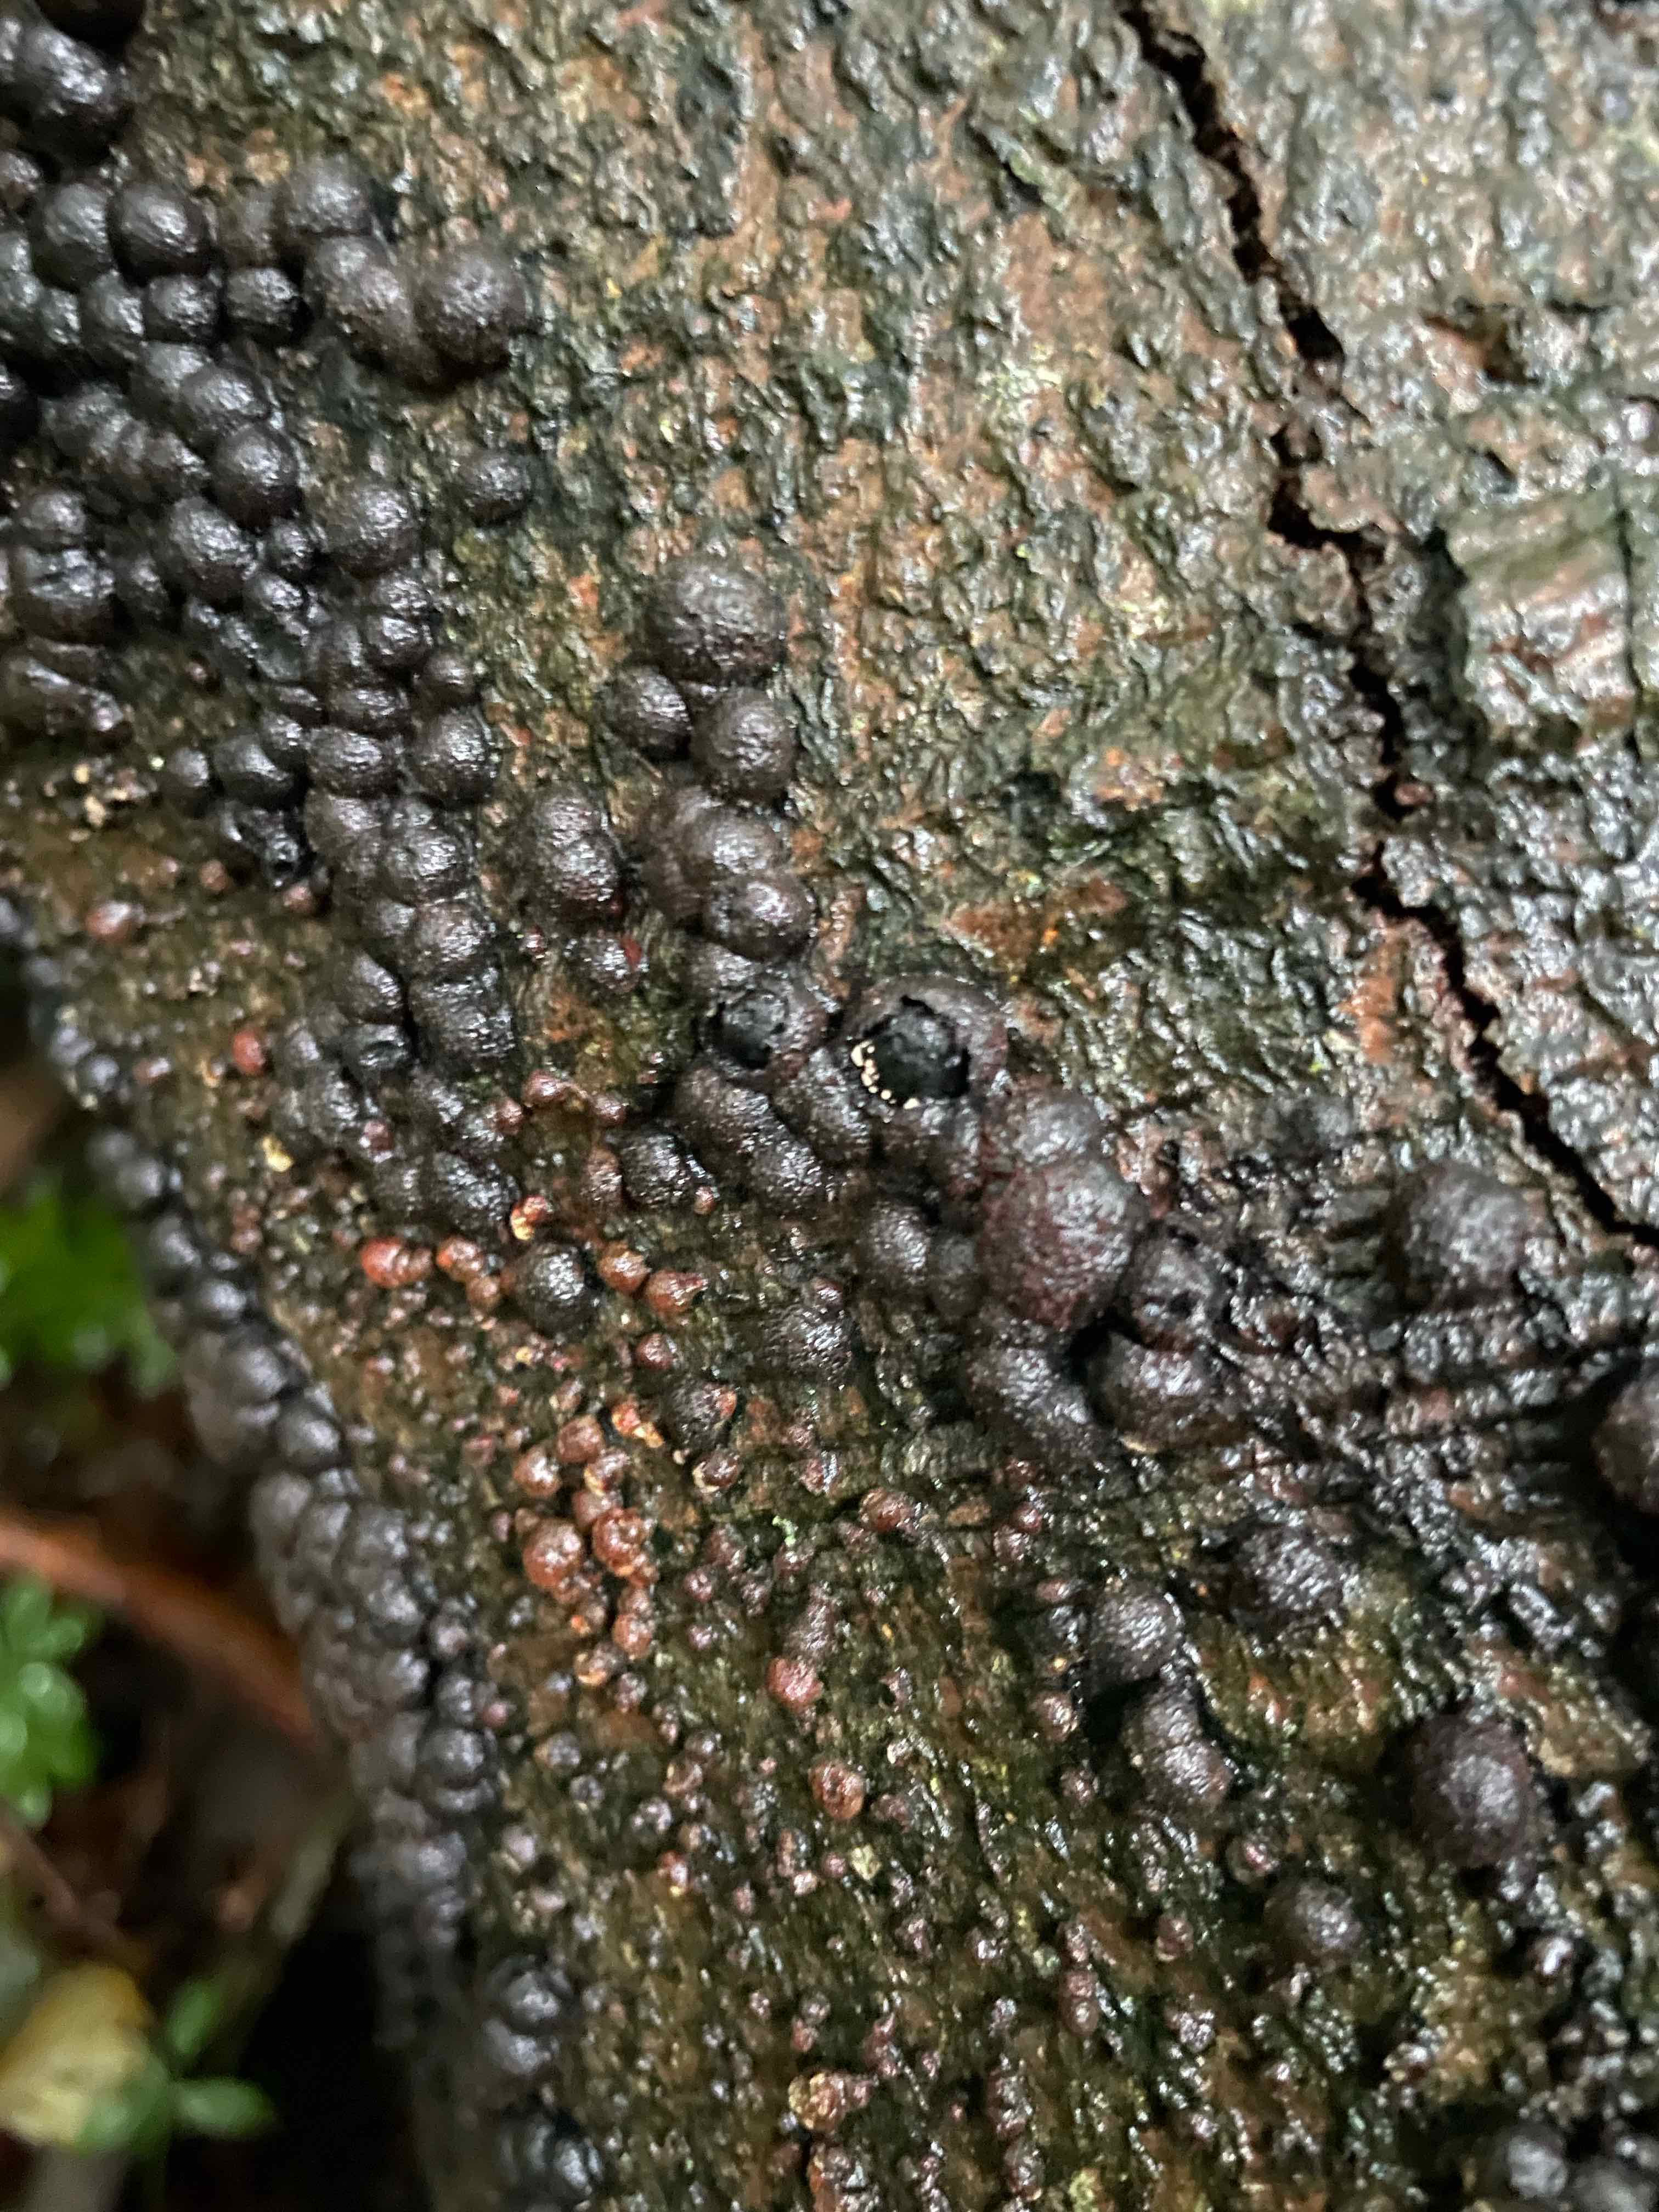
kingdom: Fungi
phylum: Ascomycota
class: Sordariomycetes
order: Xylariales
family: Hypoxylaceae
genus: Hypoxylon
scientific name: Hypoxylon fragiforme
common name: kuljordbær
